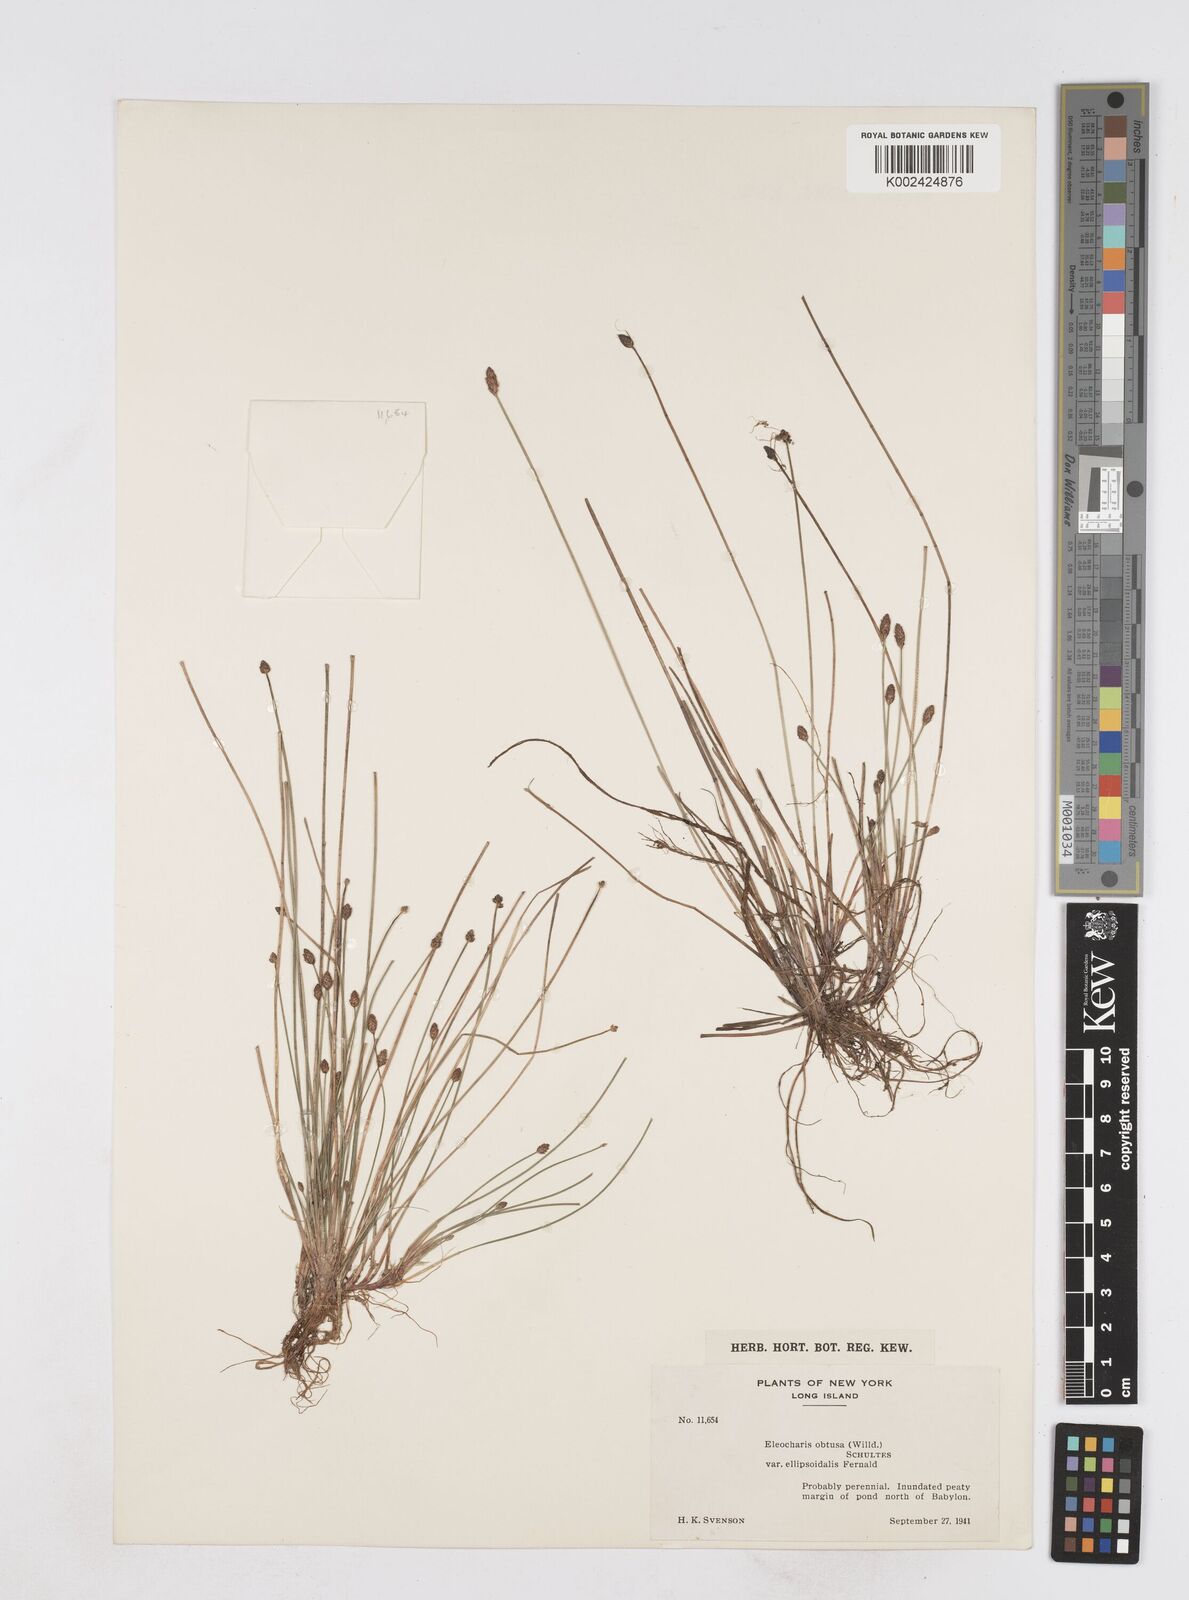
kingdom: Plantae
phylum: Tracheophyta
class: Liliopsida
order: Poales
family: Cyperaceae
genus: Eleocharis
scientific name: Eleocharis obtusa
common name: Blunt spikerush
